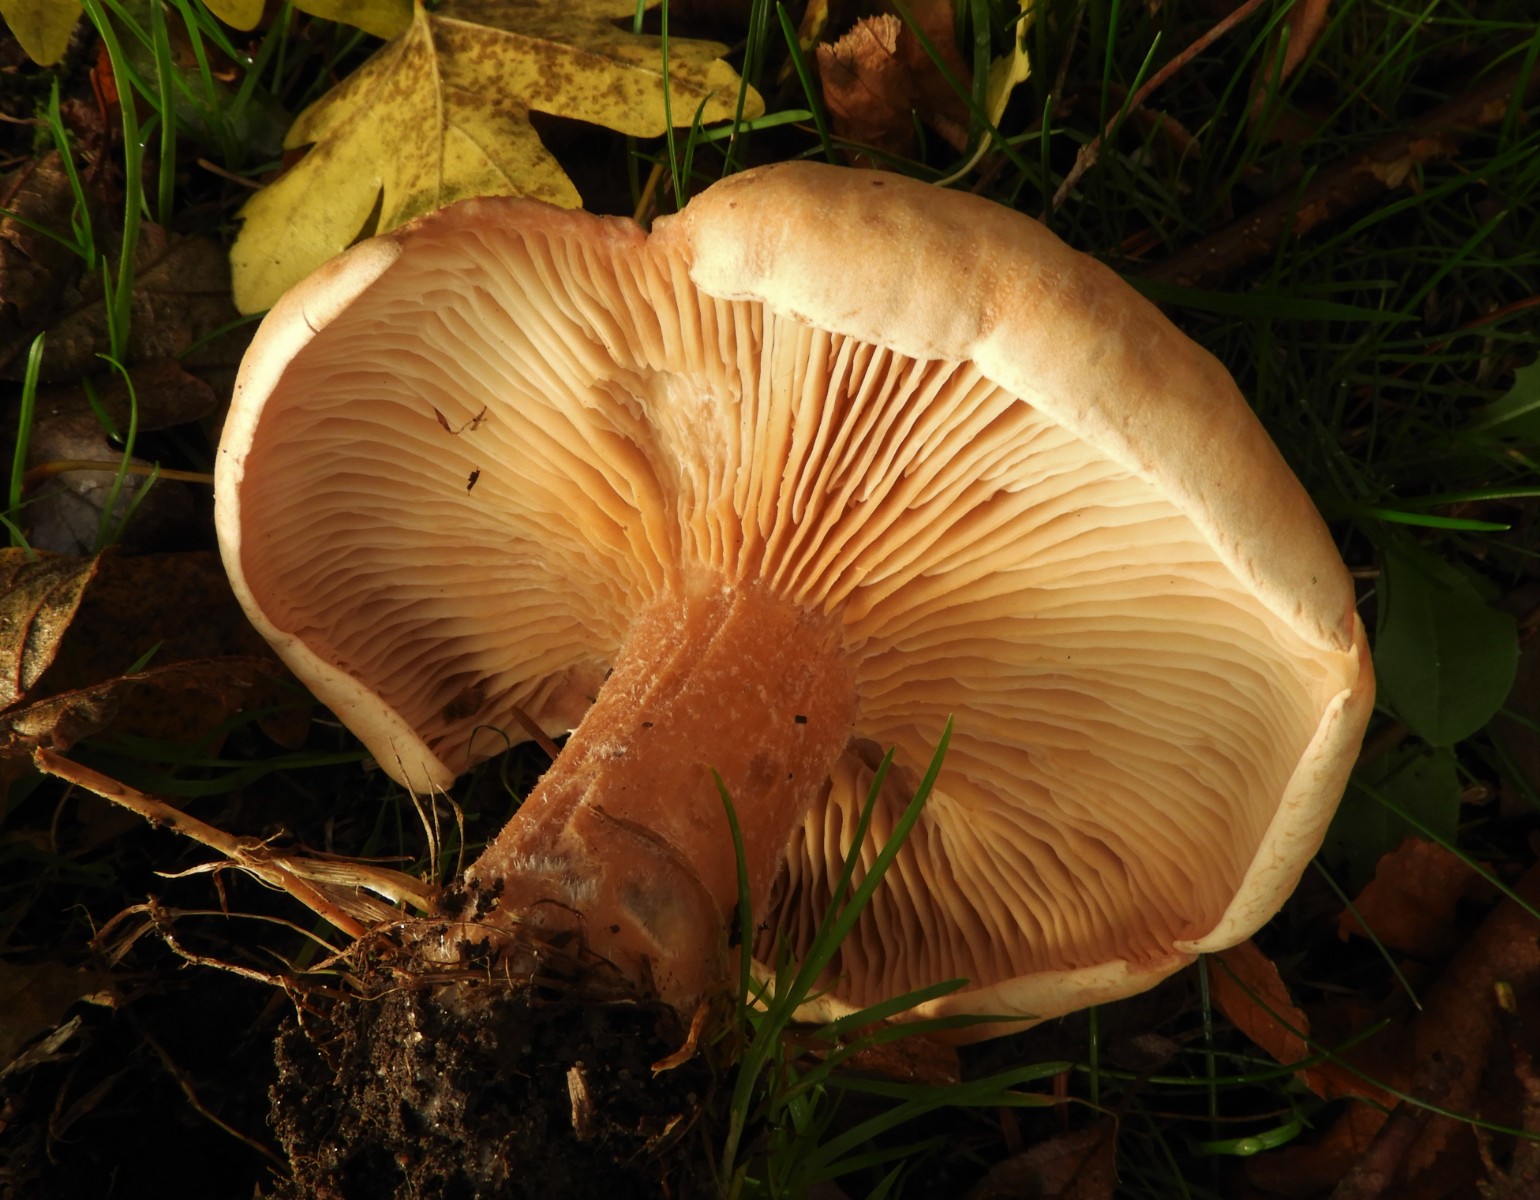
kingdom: Fungi
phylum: Basidiomycota
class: Agaricomycetes
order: Agaricales
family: Tricholomataceae
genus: Lepista
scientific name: Lepista
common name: hekseringshat
